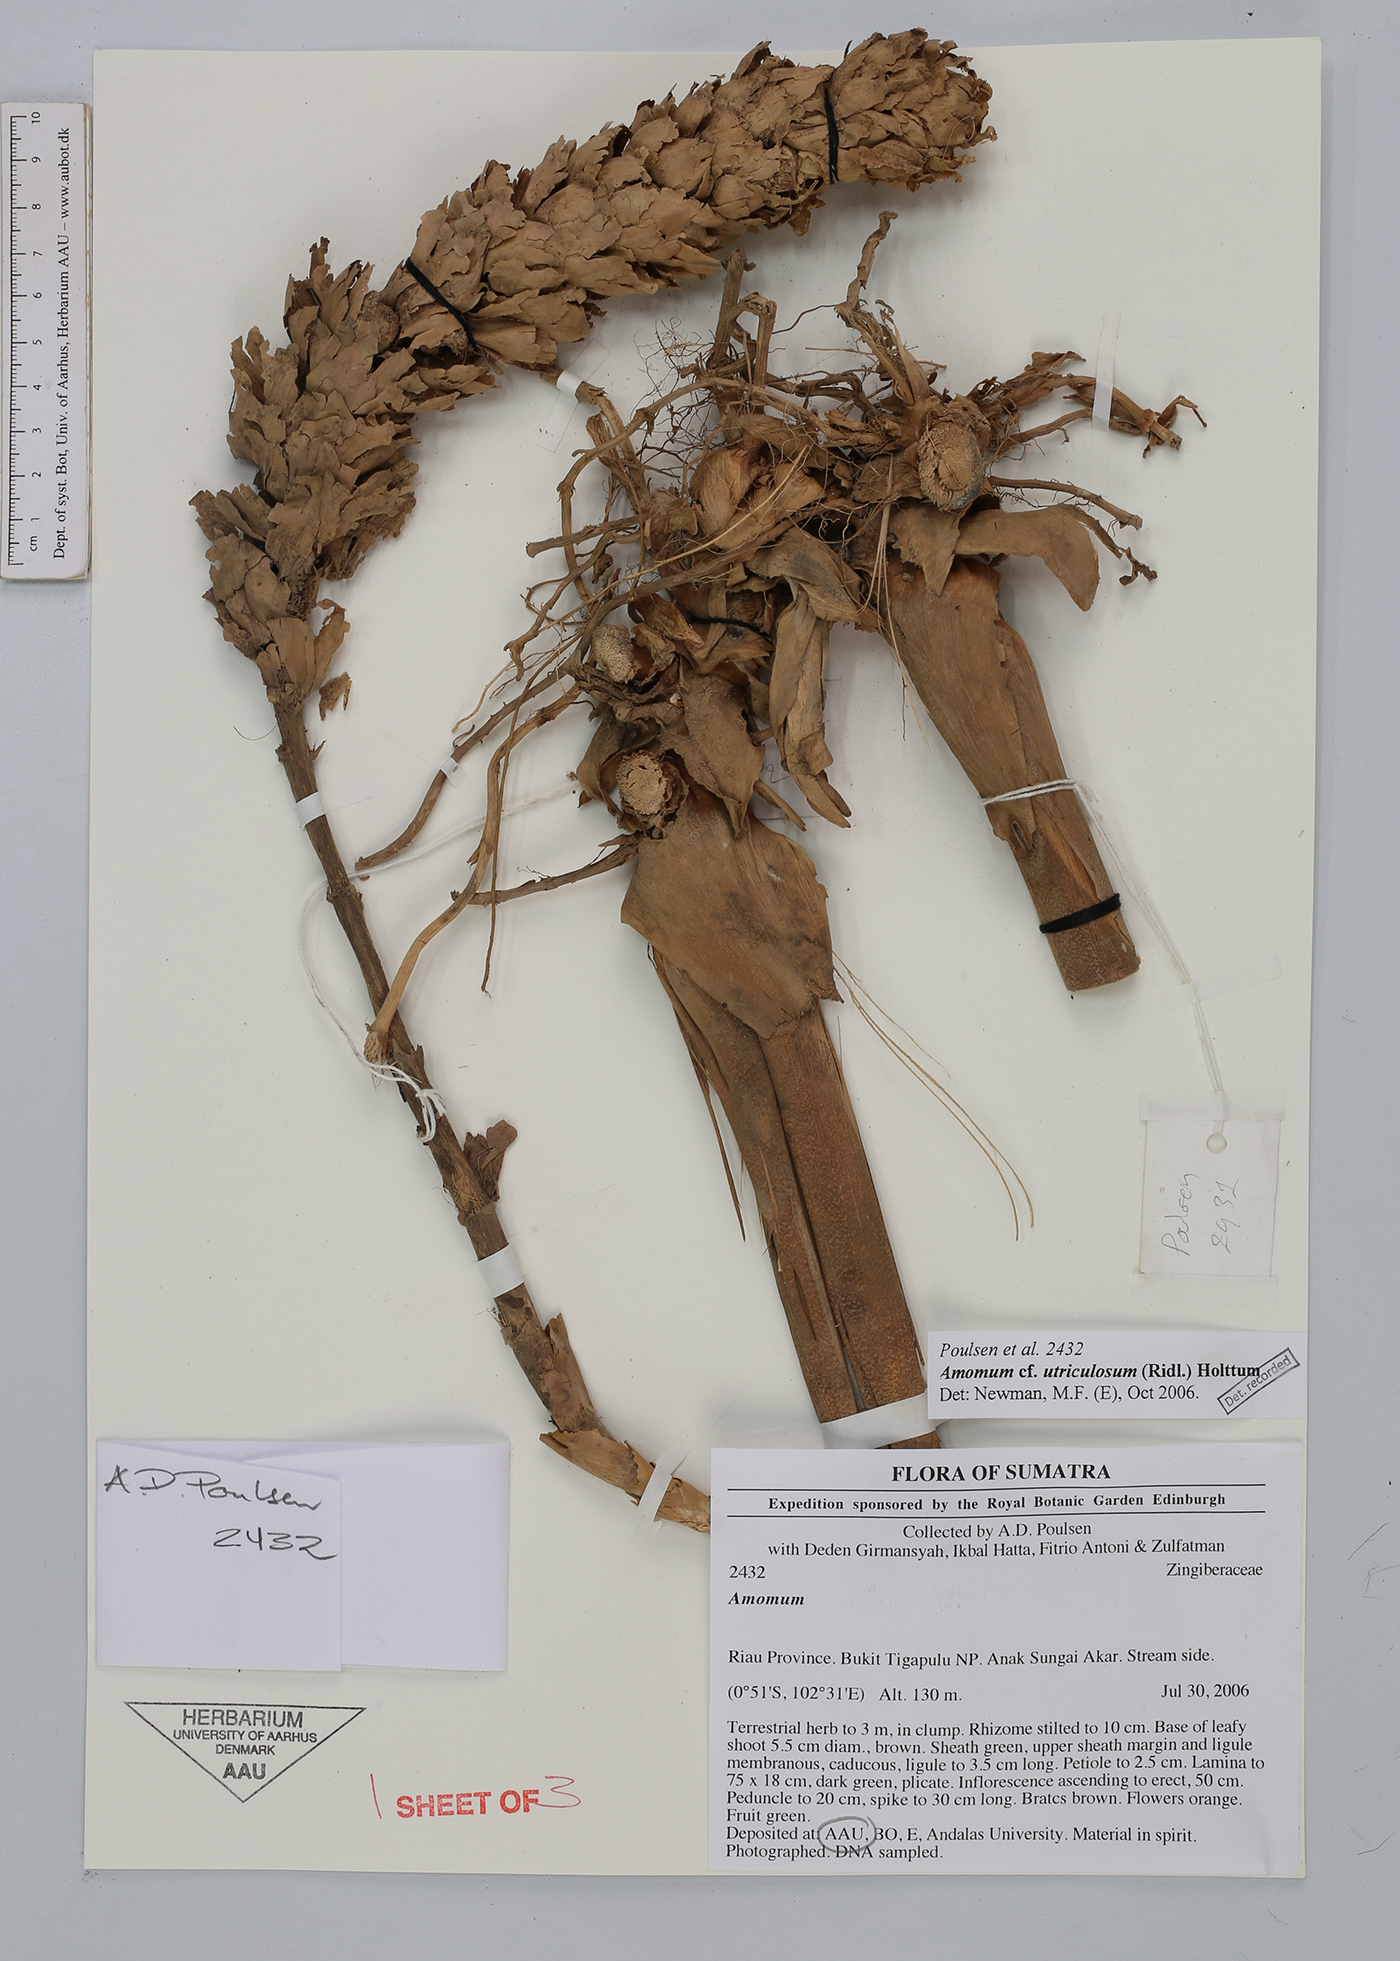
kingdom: Plantae
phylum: Tracheophyta
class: Liliopsida
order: Zingiberales
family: Zingiberaceae
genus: Conamomum
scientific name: Conamomum utriculosum
